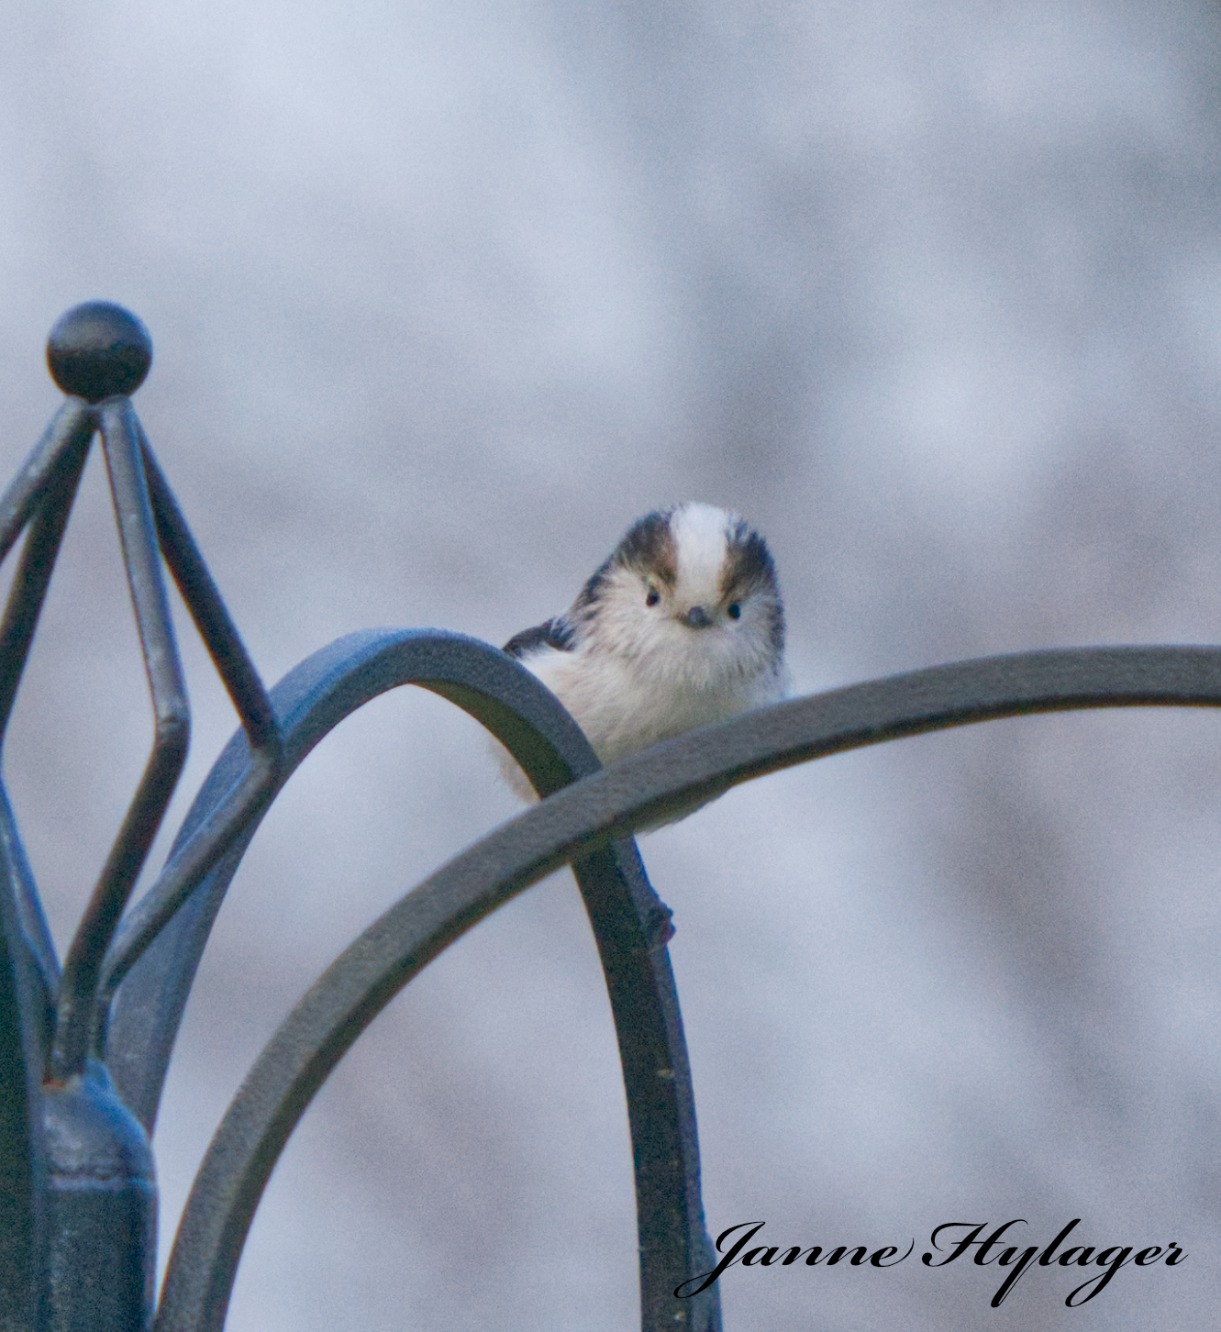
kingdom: Animalia
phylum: Chordata
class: Aves
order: Passeriformes
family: Aegithalidae
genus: Aegithalos
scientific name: Aegithalos caudatus
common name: Sydlig halemejse
